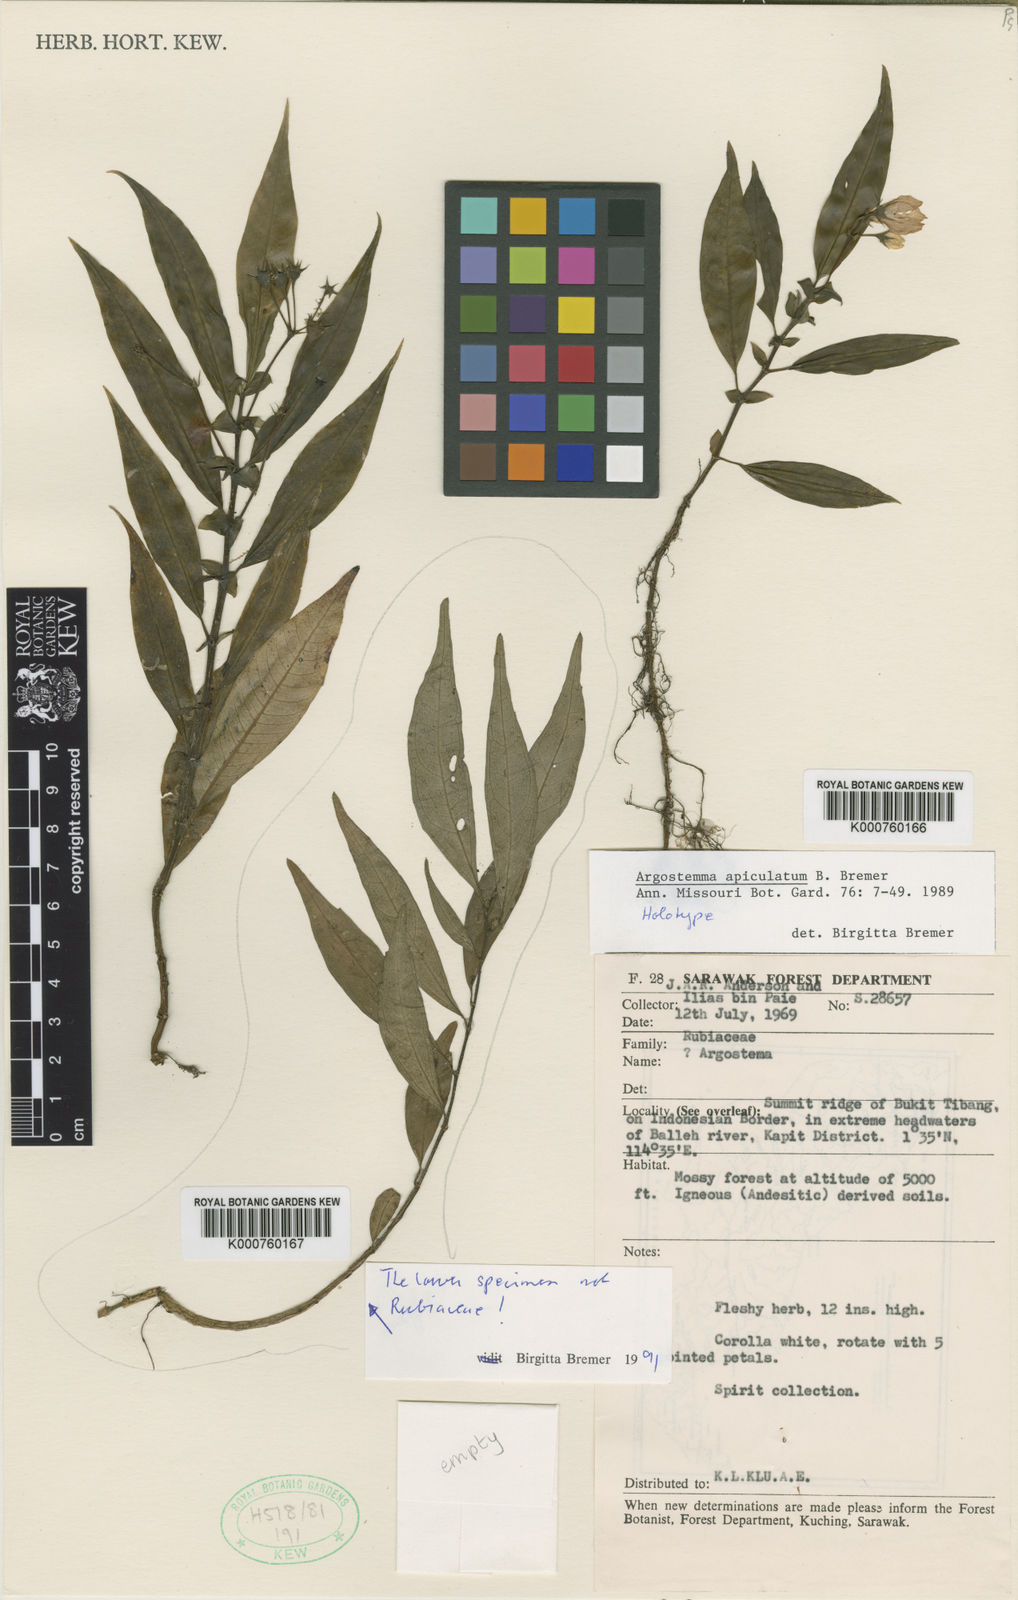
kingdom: Plantae
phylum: Tracheophyta
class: Magnoliopsida
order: Gentianales
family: Rubiaceae
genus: Argostemma
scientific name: Argostemma apiculatum
